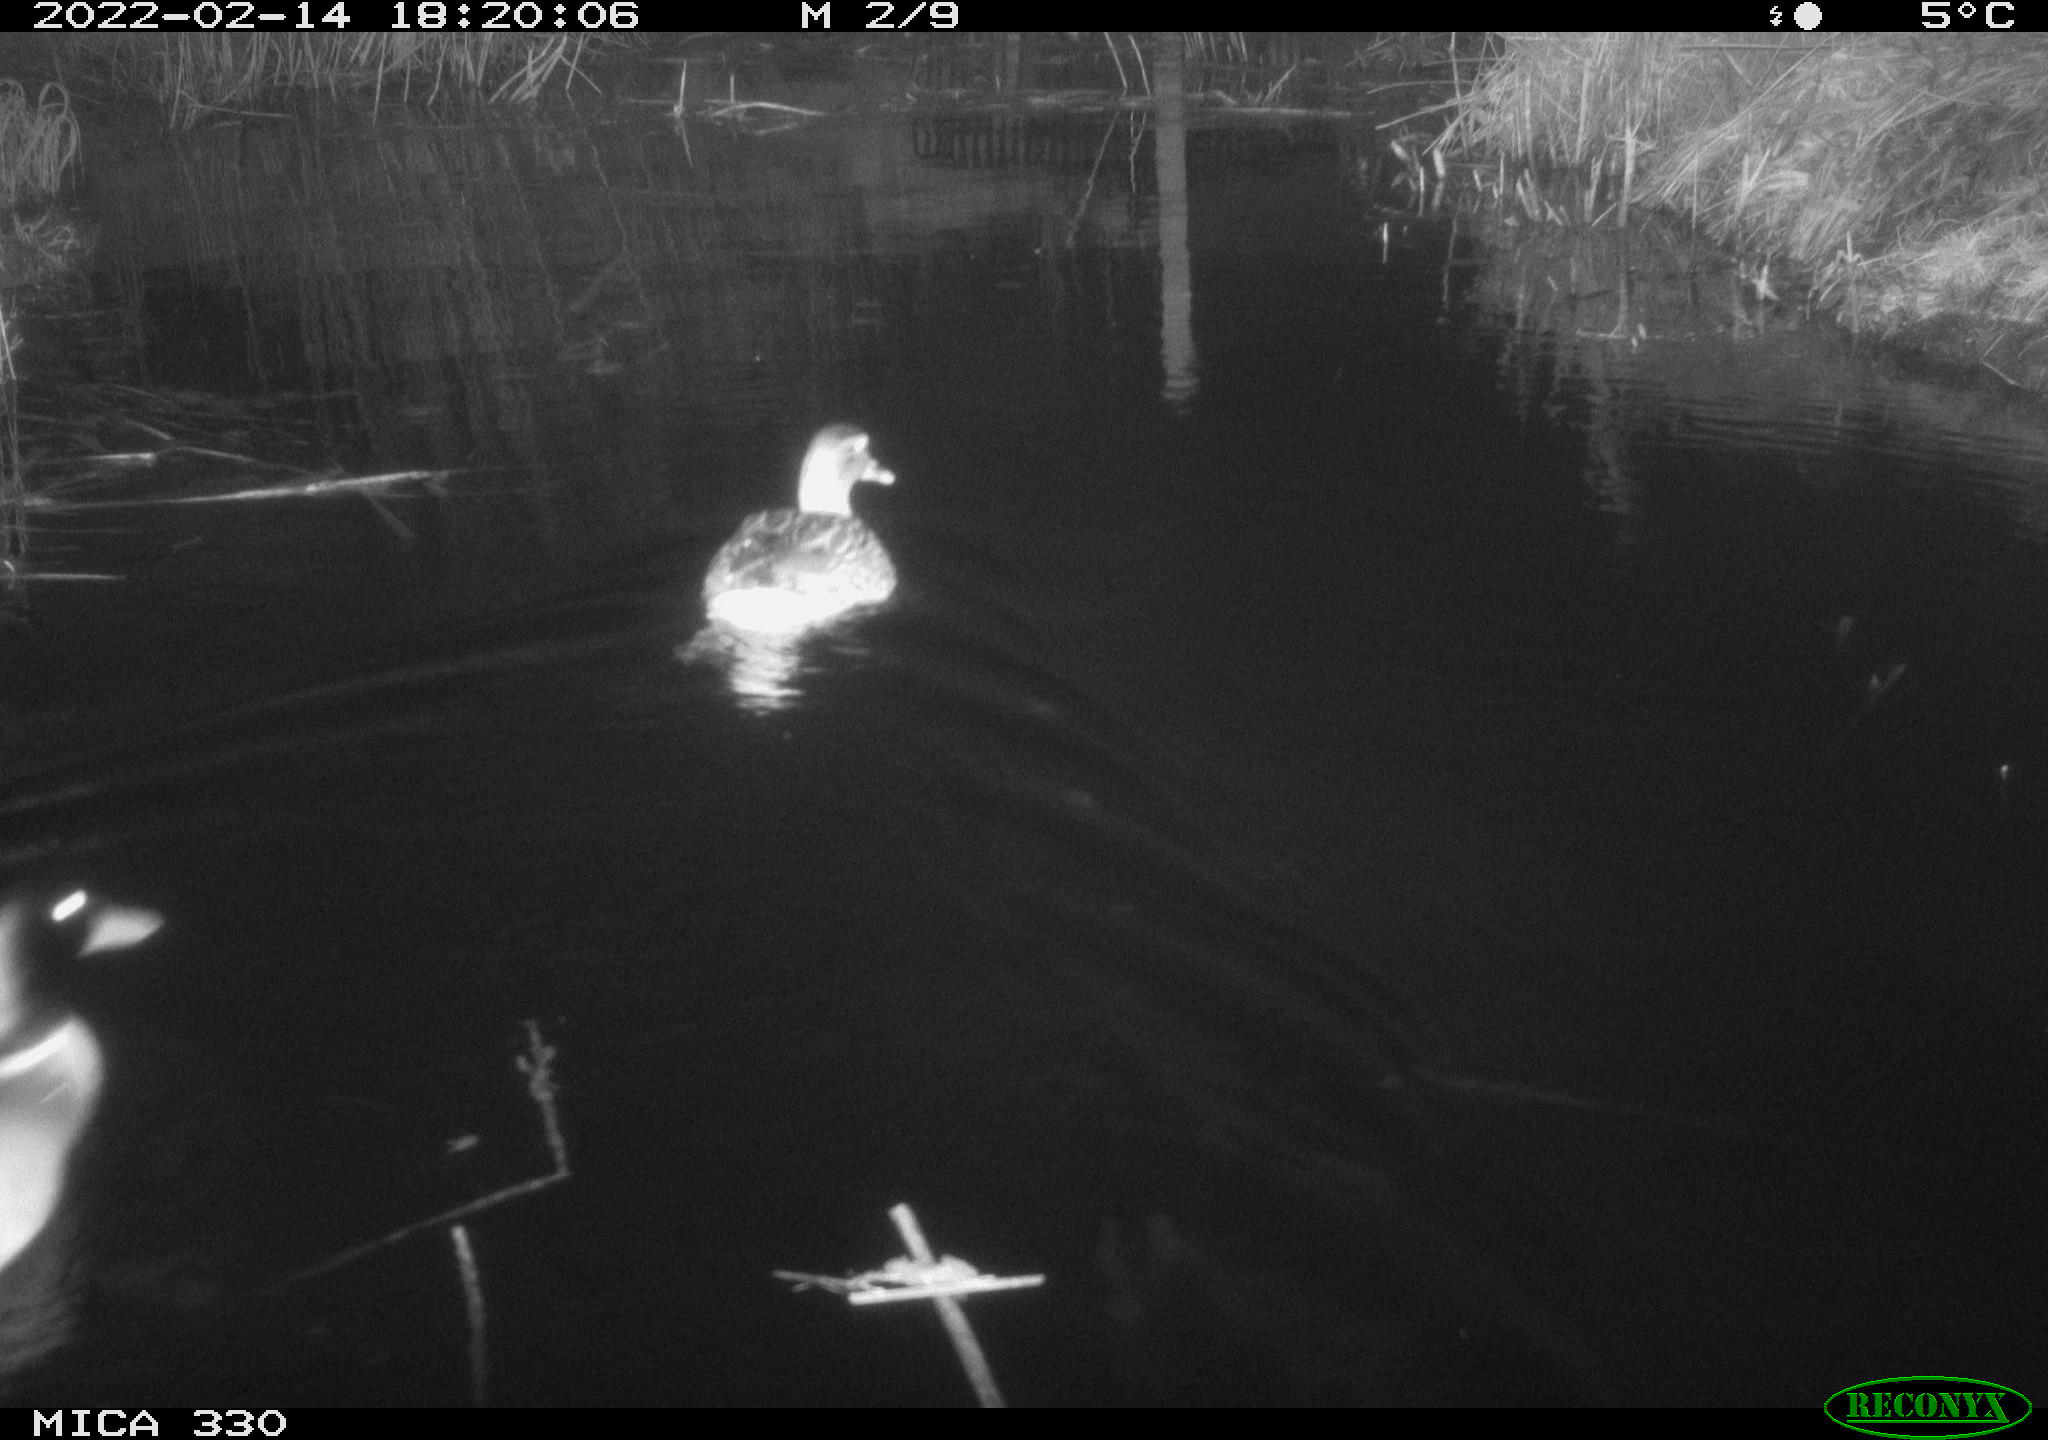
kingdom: Animalia
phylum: Chordata
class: Aves
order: Anseriformes
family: Anatidae
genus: Anas
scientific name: Anas platyrhynchos
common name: Mallard
